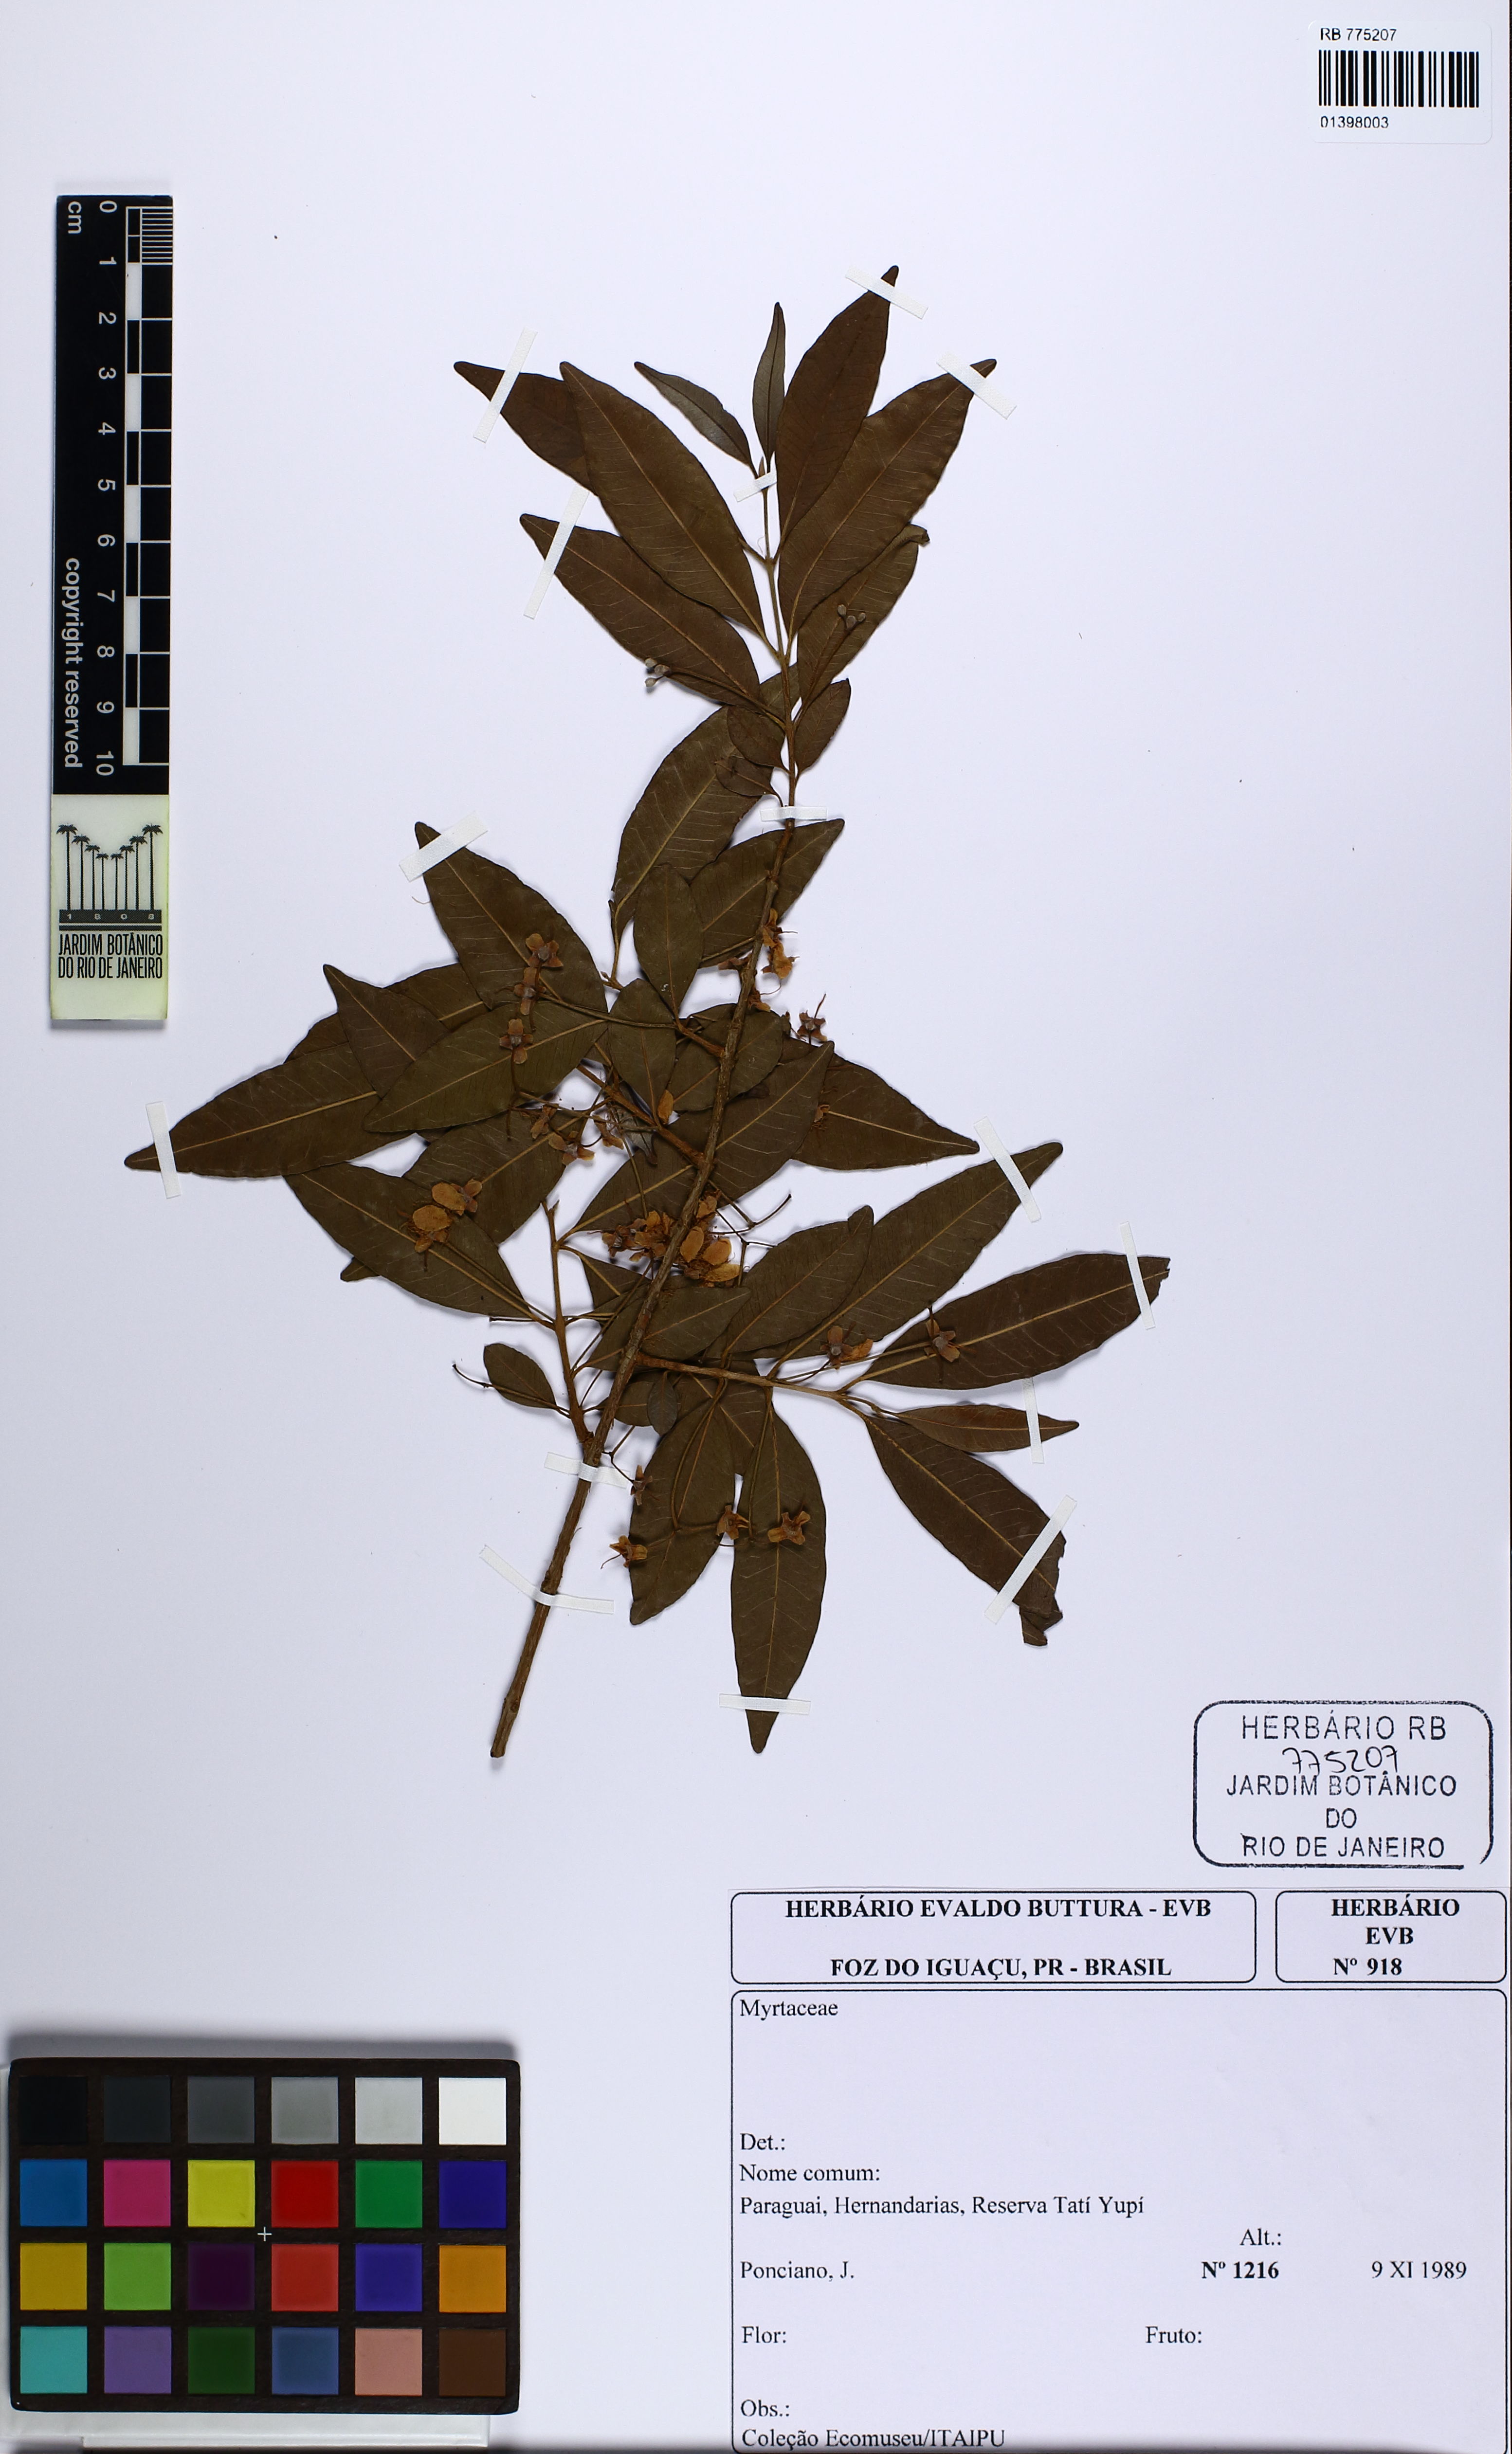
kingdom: Plantae
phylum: Tracheophyta
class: Magnoliopsida
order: Myrtales
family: Myrtaceae
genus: Eugenia
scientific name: Eugenia pyriformis
